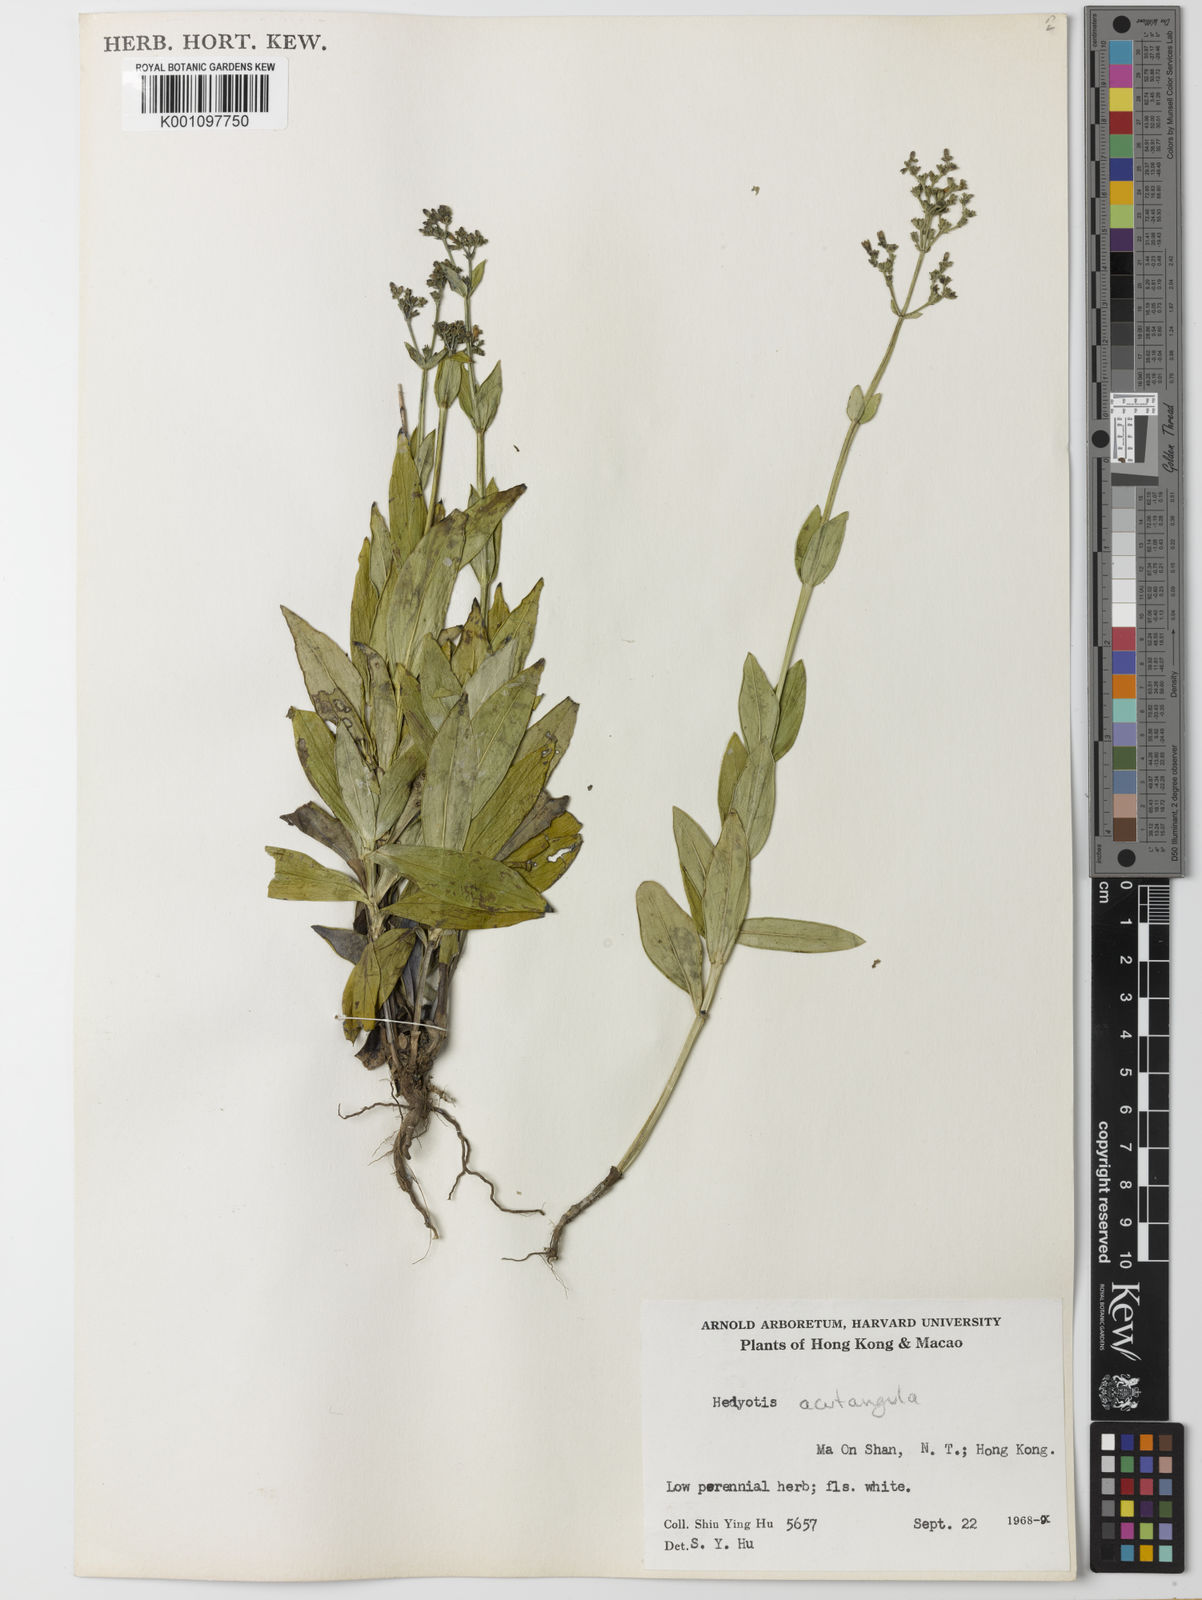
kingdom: Plantae
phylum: Tracheophyta
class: Magnoliopsida
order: Gentianales
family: Rubiaceae
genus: Hedyotis
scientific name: Hedyotis acutangula
